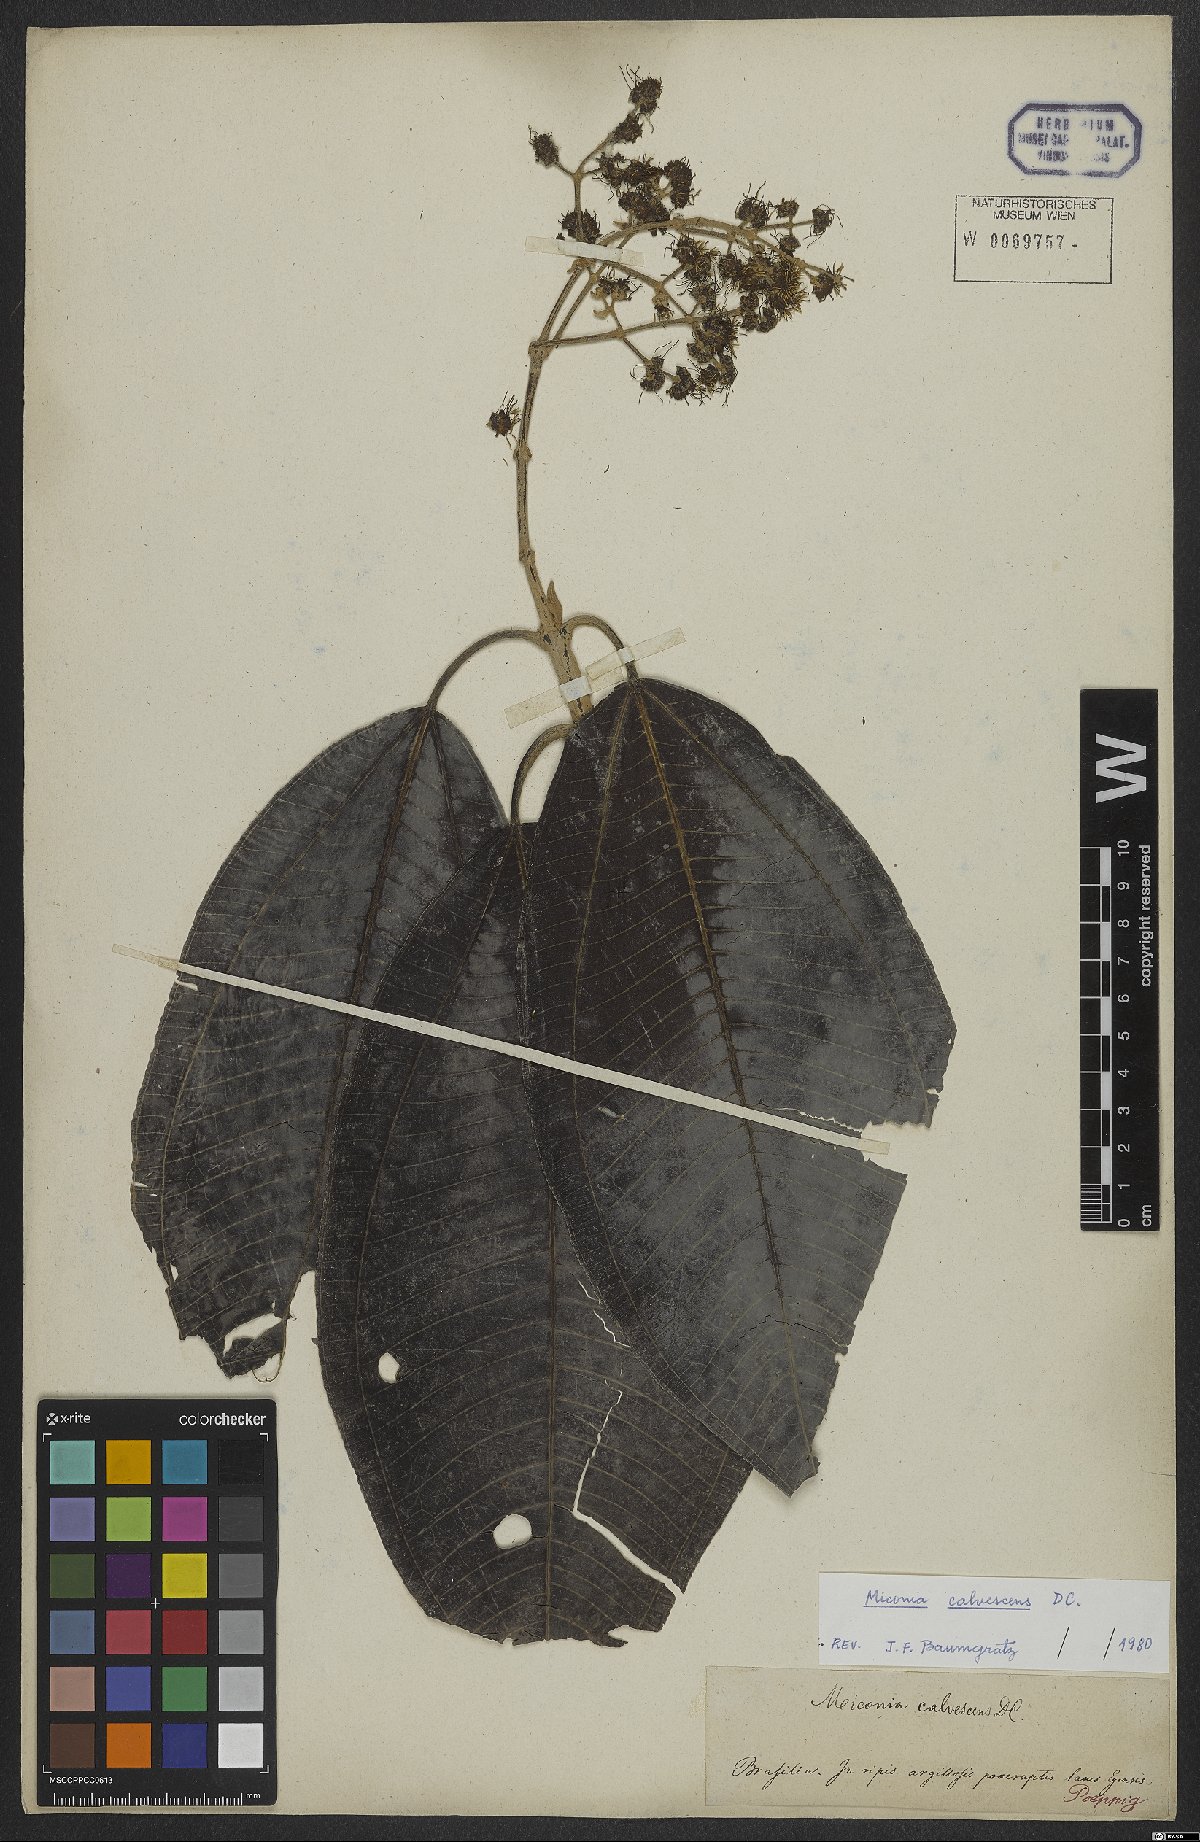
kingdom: Plantae
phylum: Tracheophyta
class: Magnoliopsida
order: Myrtales
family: Melastomataceae
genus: Miconia
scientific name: Miconia calvescens
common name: Purple plague
